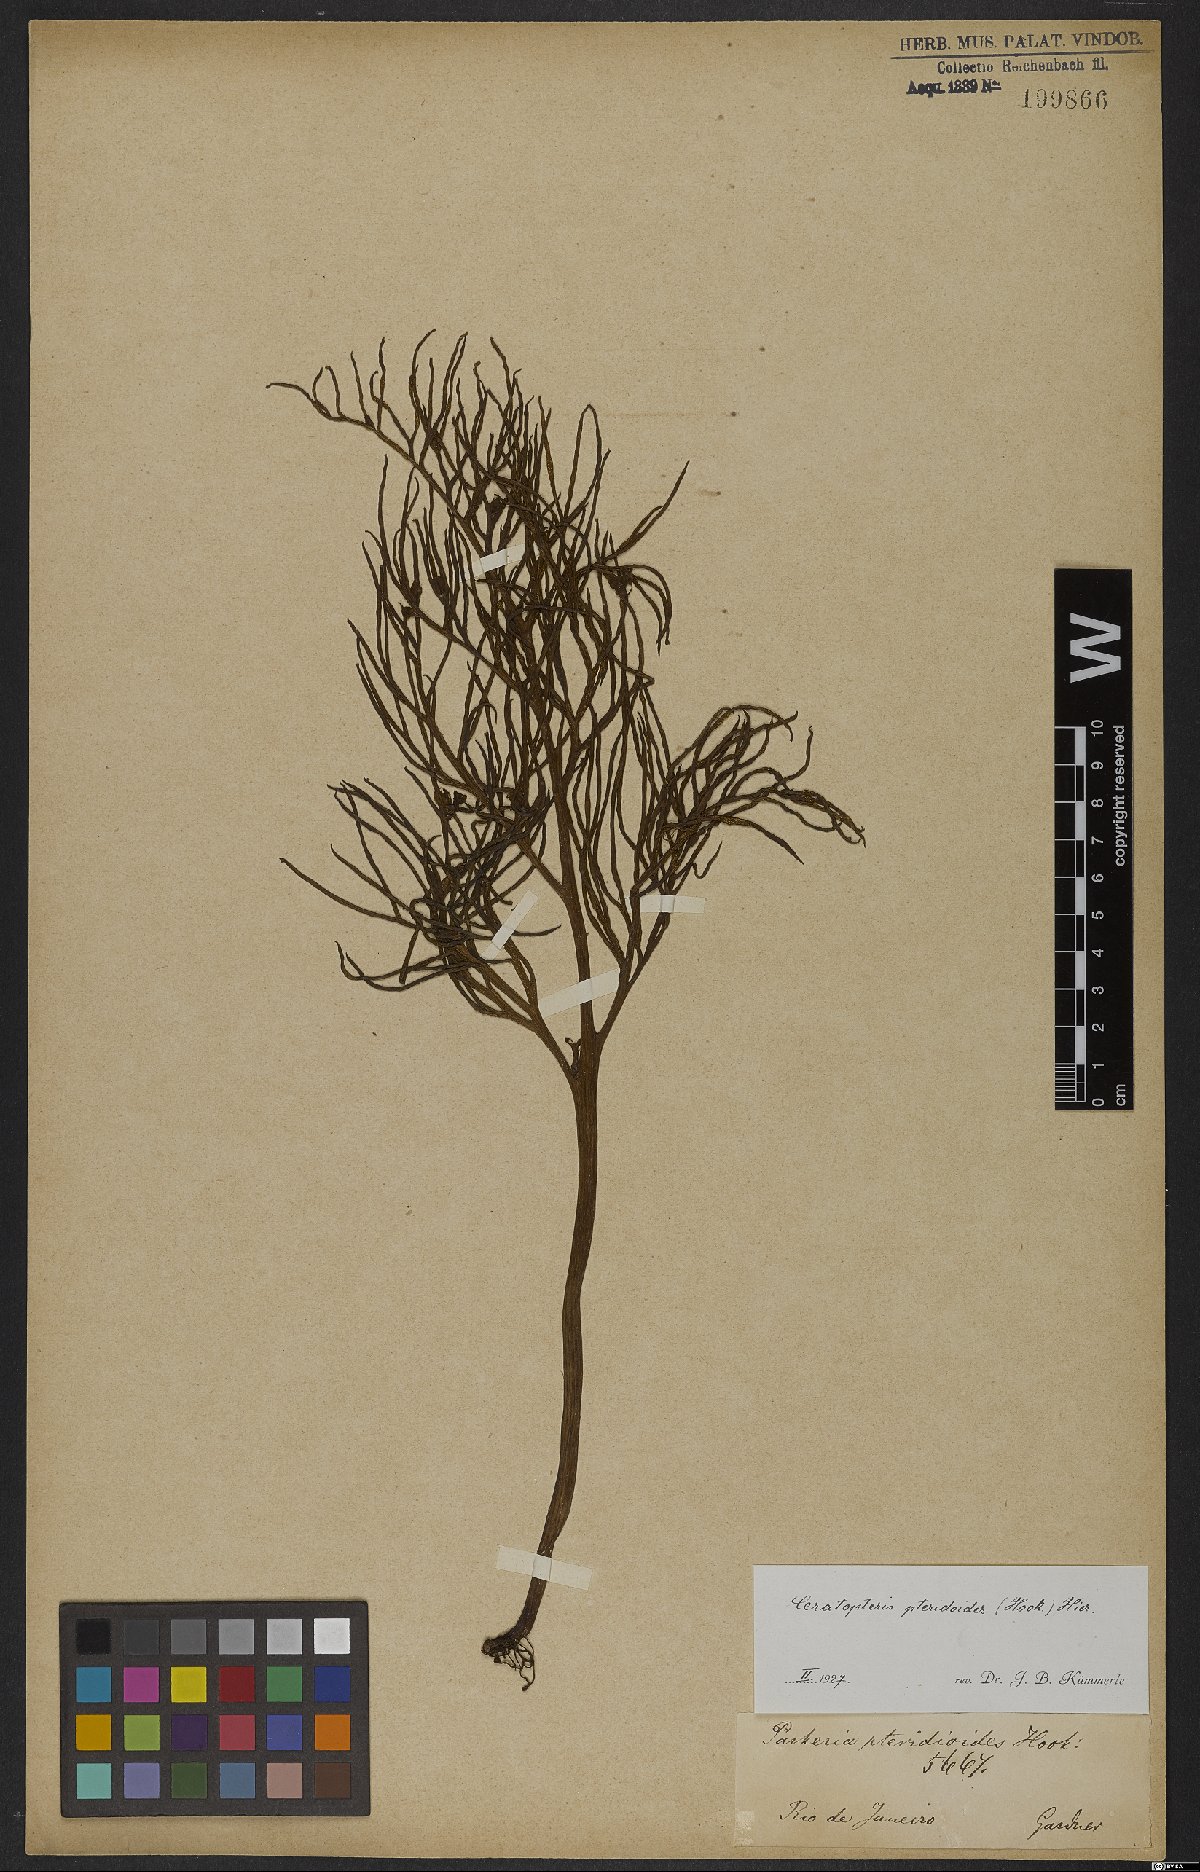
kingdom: Plantae
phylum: Tracheophyta
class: Polypodiopsida
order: Polypodiales
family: Pteridaceae
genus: Ceratopteris
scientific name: Ceratopteris pteridoides
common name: Floating fern
